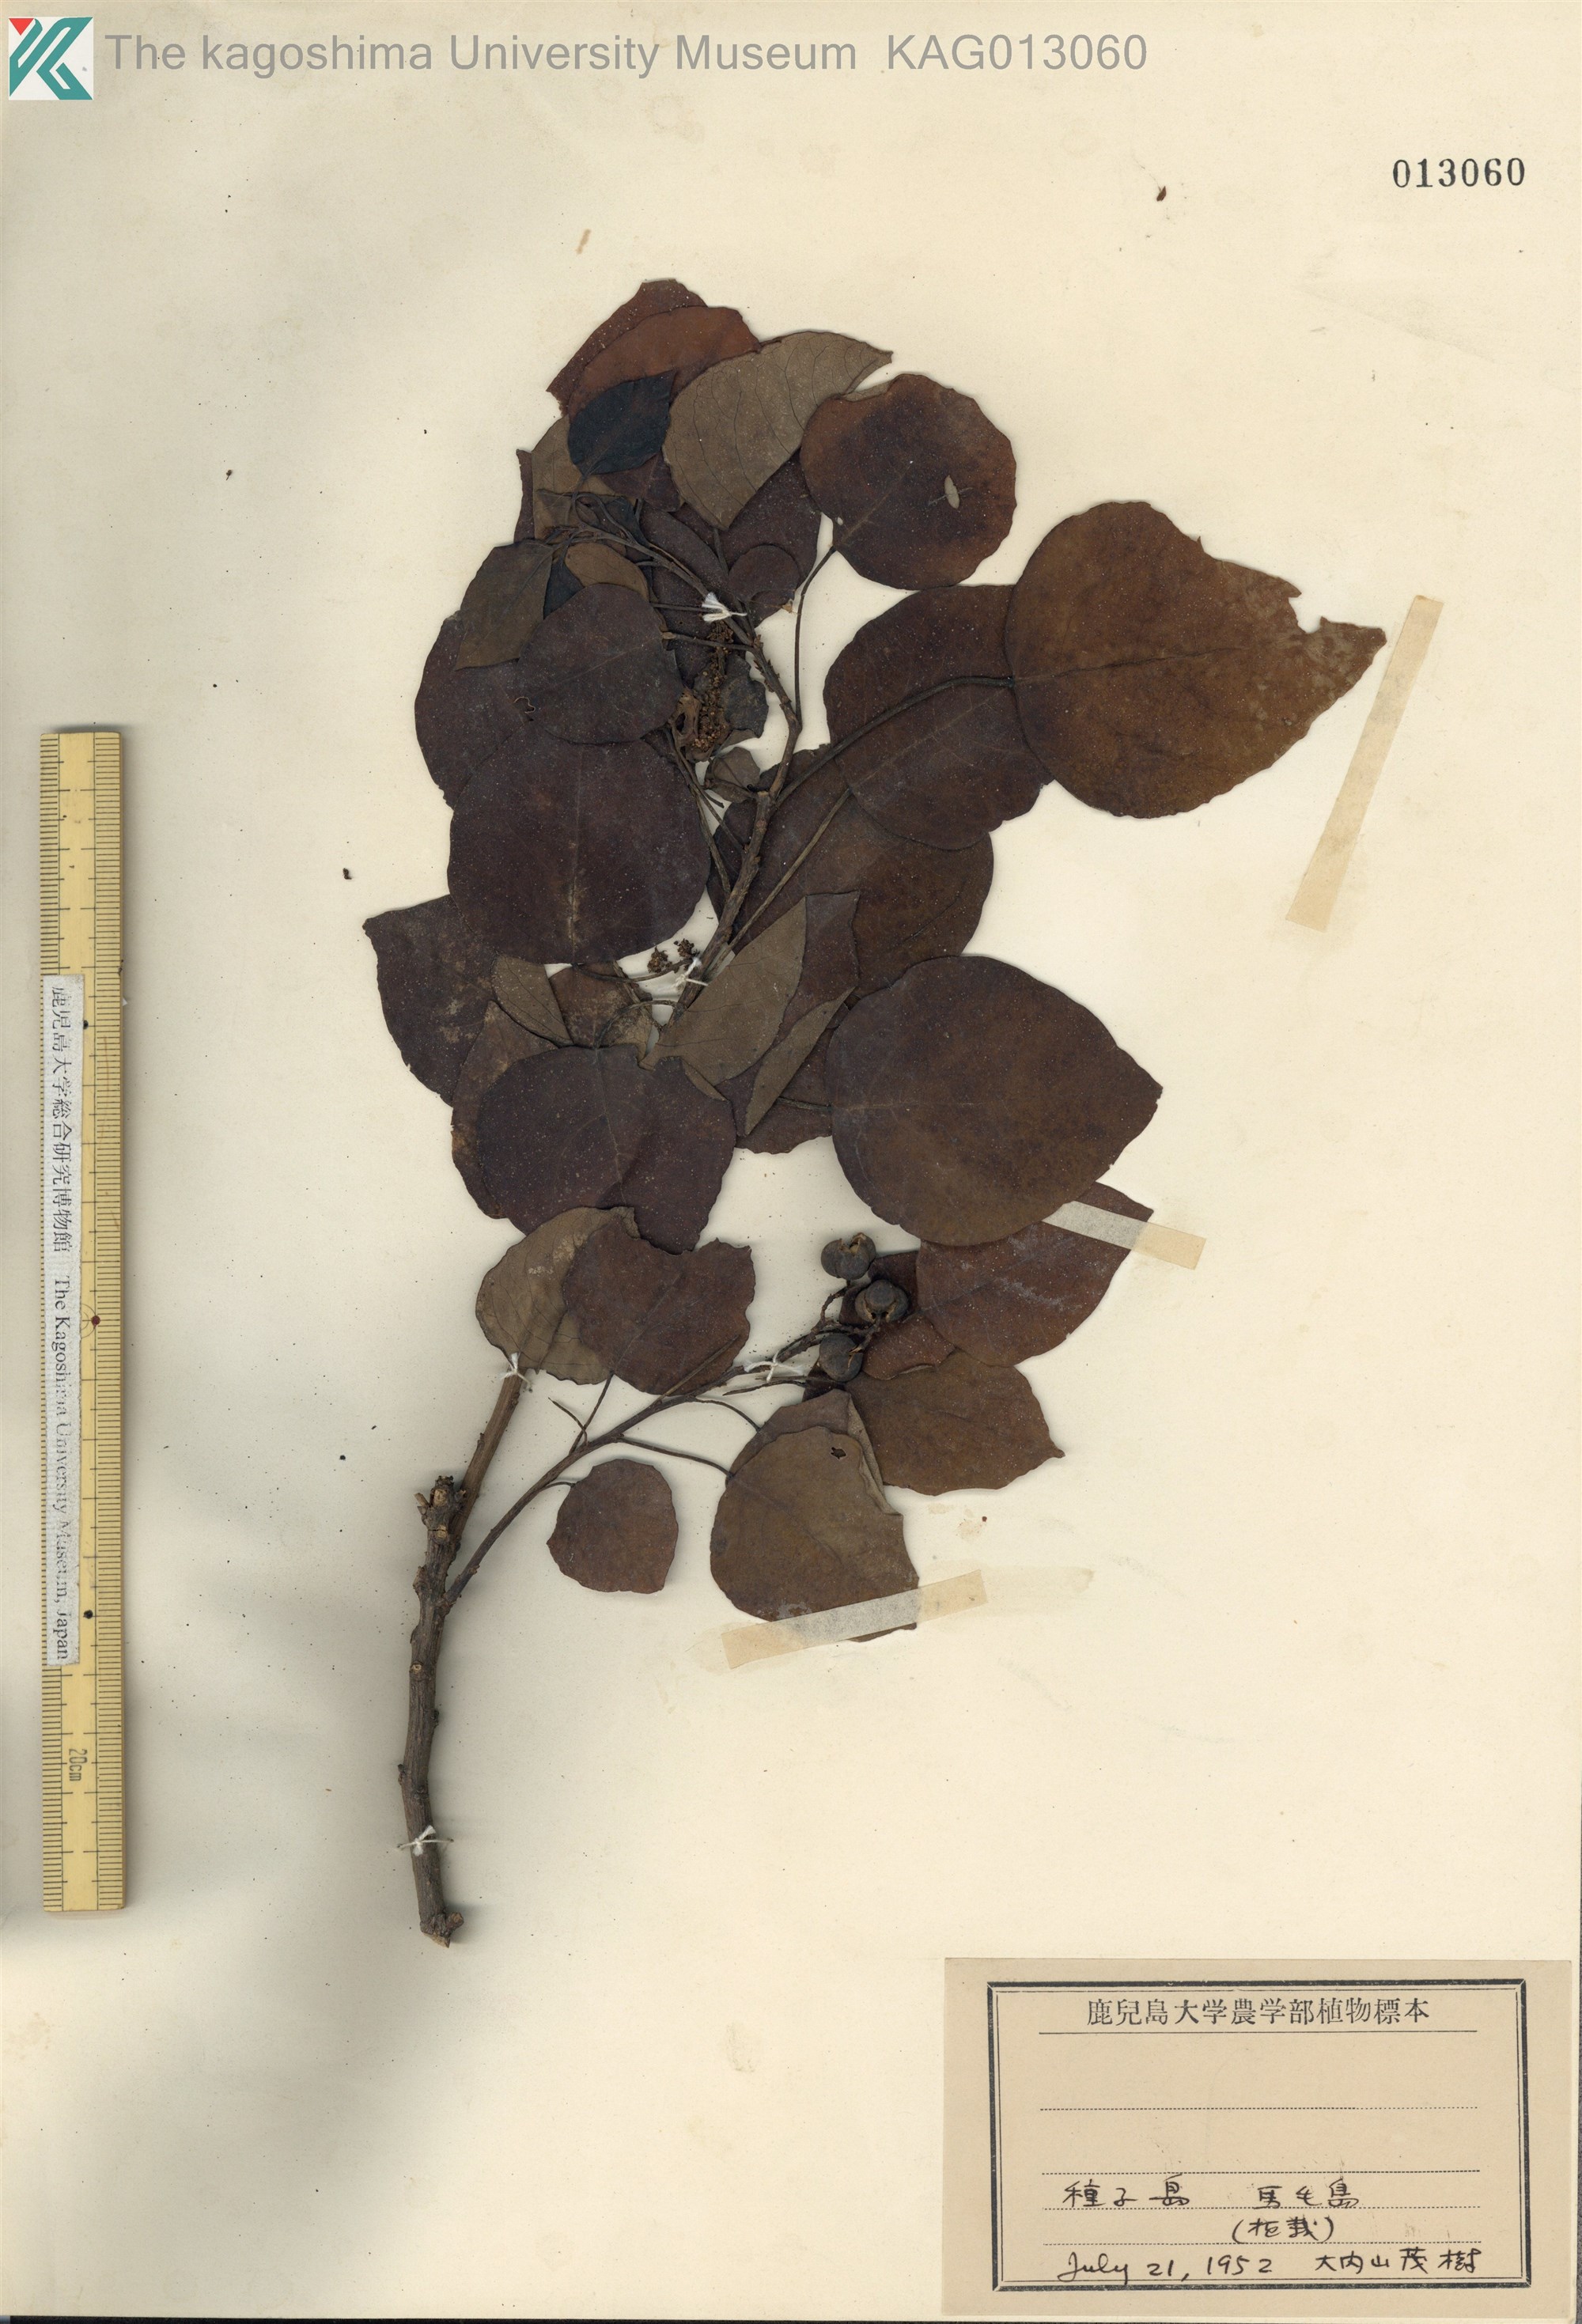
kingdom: Plantae
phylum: Tracheophyta
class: Magnoliopsida
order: Malpighiales
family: Euphorbiaceae
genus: Triadica
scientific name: Triadica sebifera
